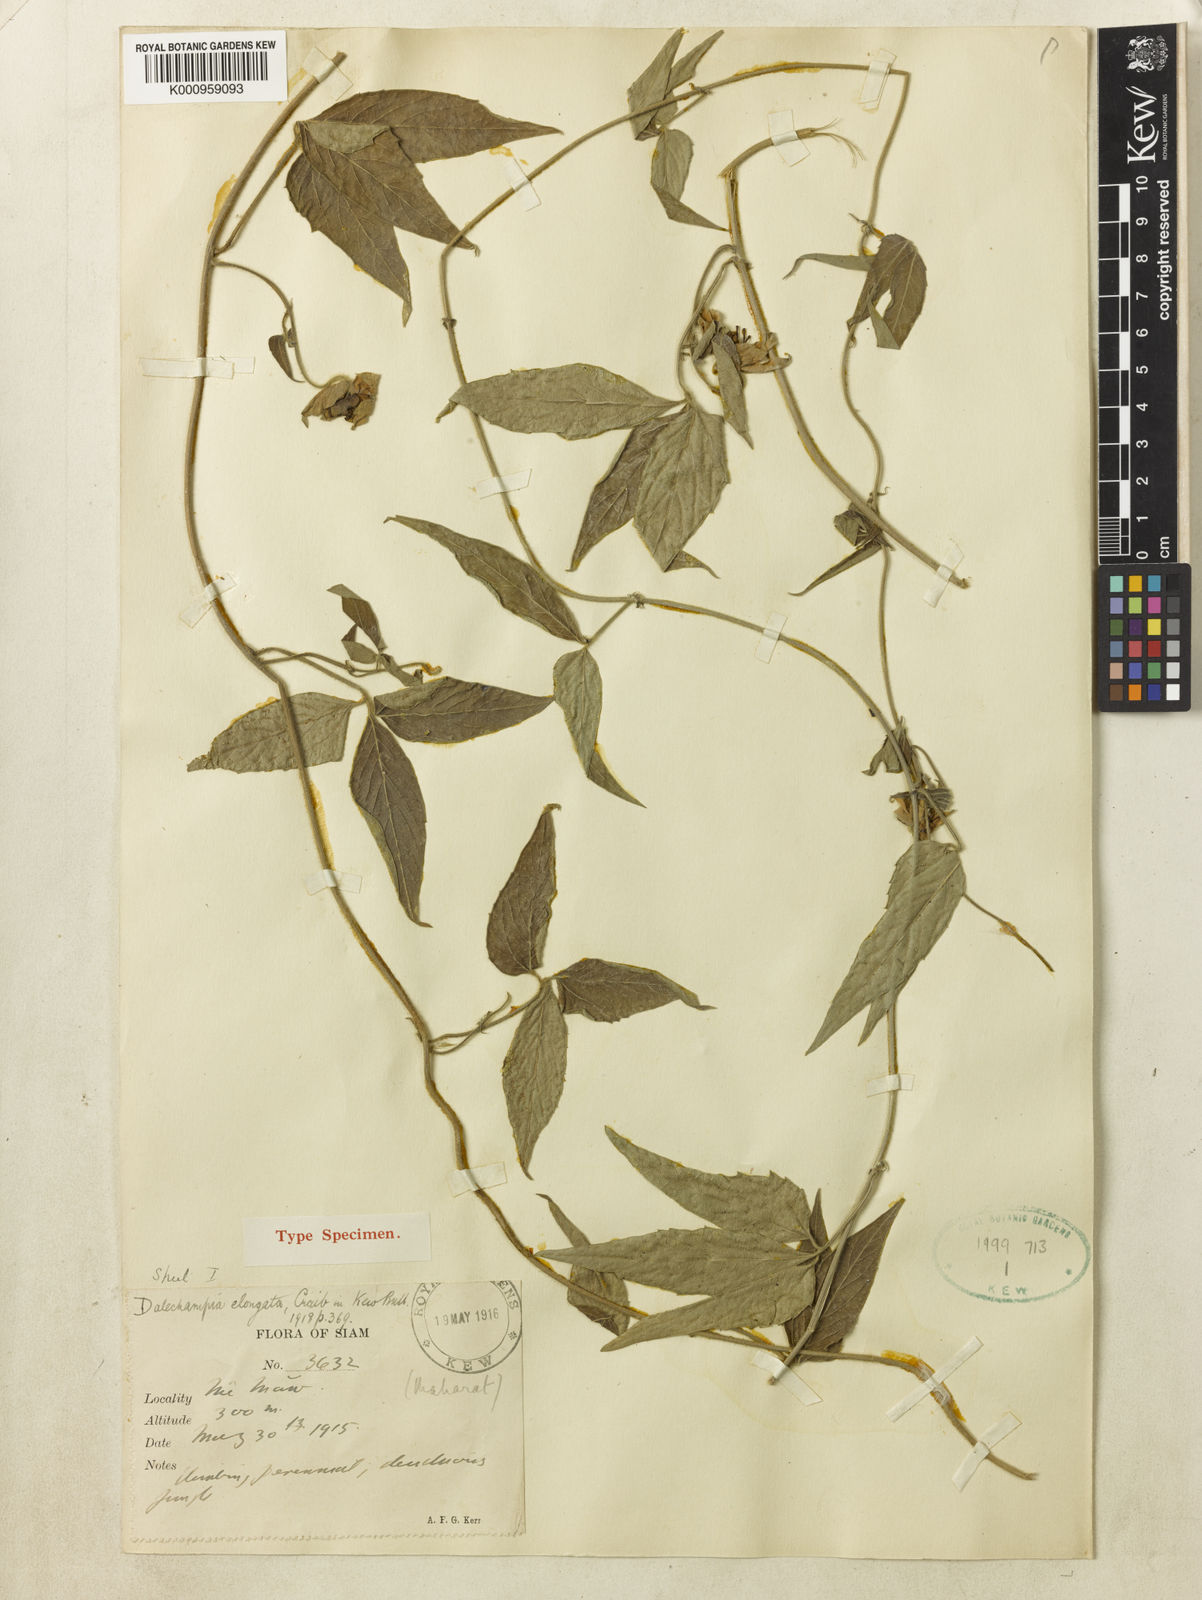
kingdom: Plantae
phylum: Tracheophyta
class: Magnoliopsida
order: Malpighiales
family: Euphorbiaceae
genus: Dalechampia
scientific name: Dalechampia elongata
